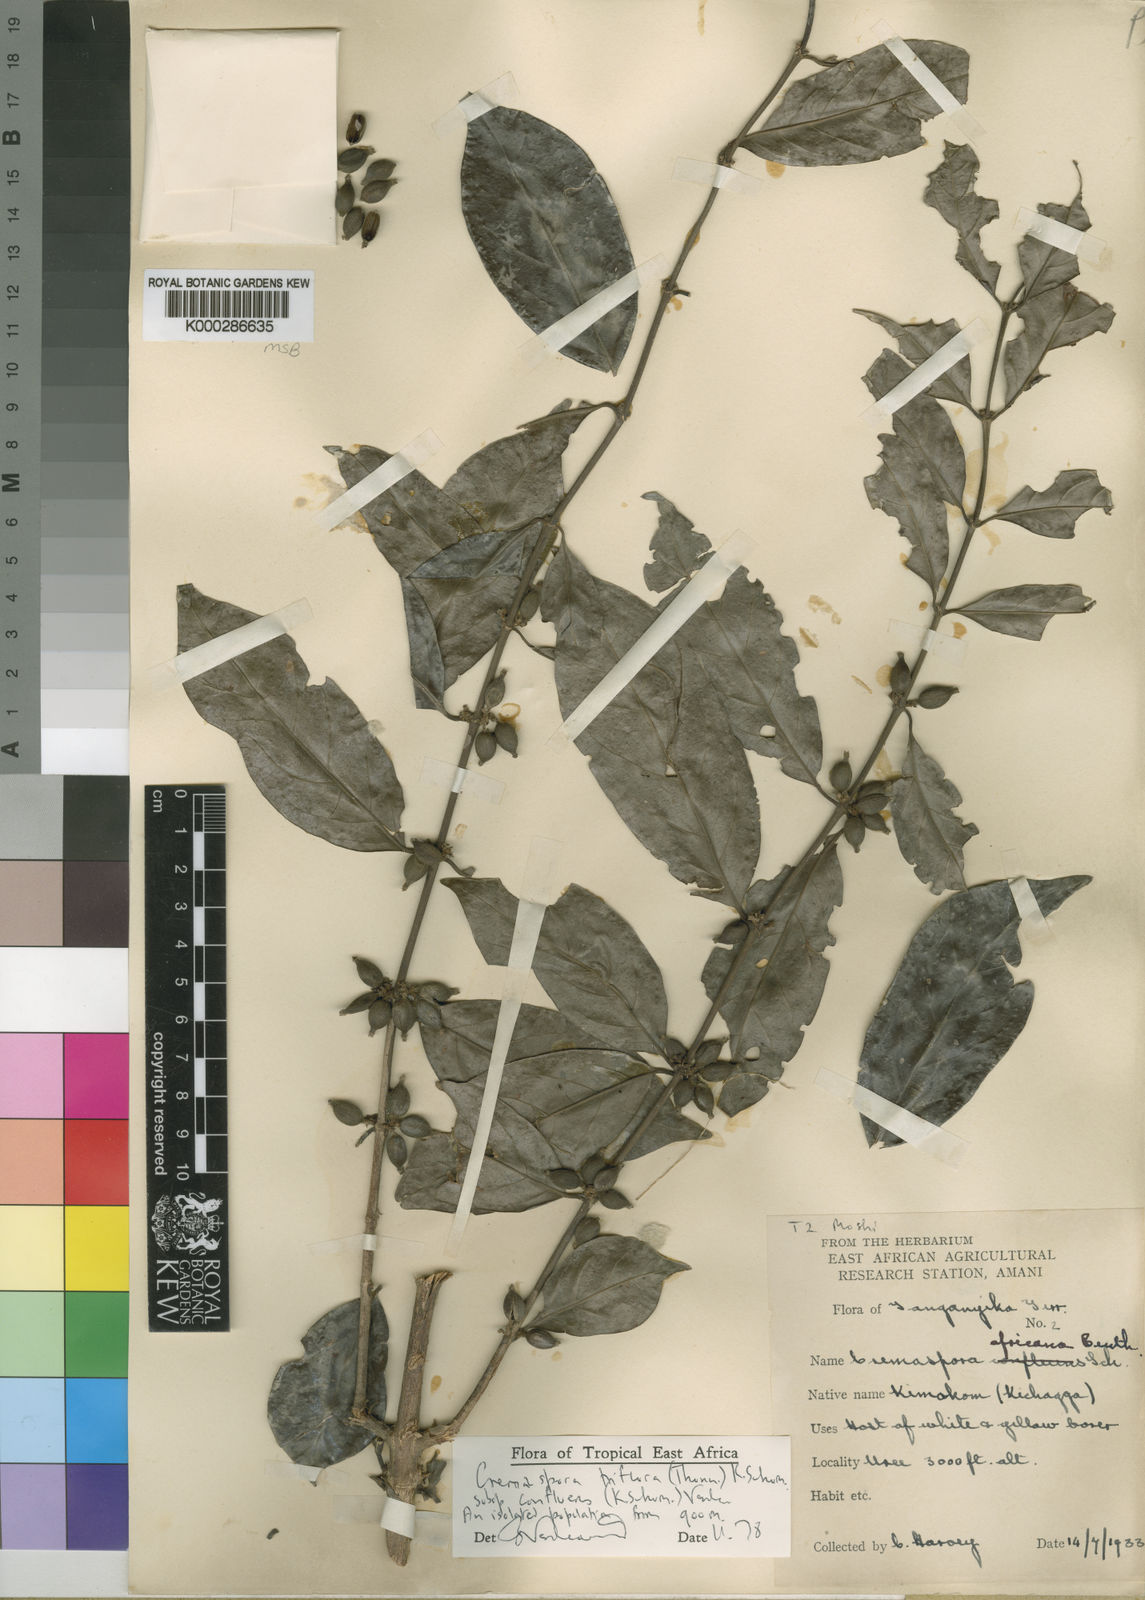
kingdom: Plantae
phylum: Tracheophyta
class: Magnoliopsida
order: Gentianales
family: Rubiaceae
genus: Cremaspora
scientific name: Cremaspora triflora
